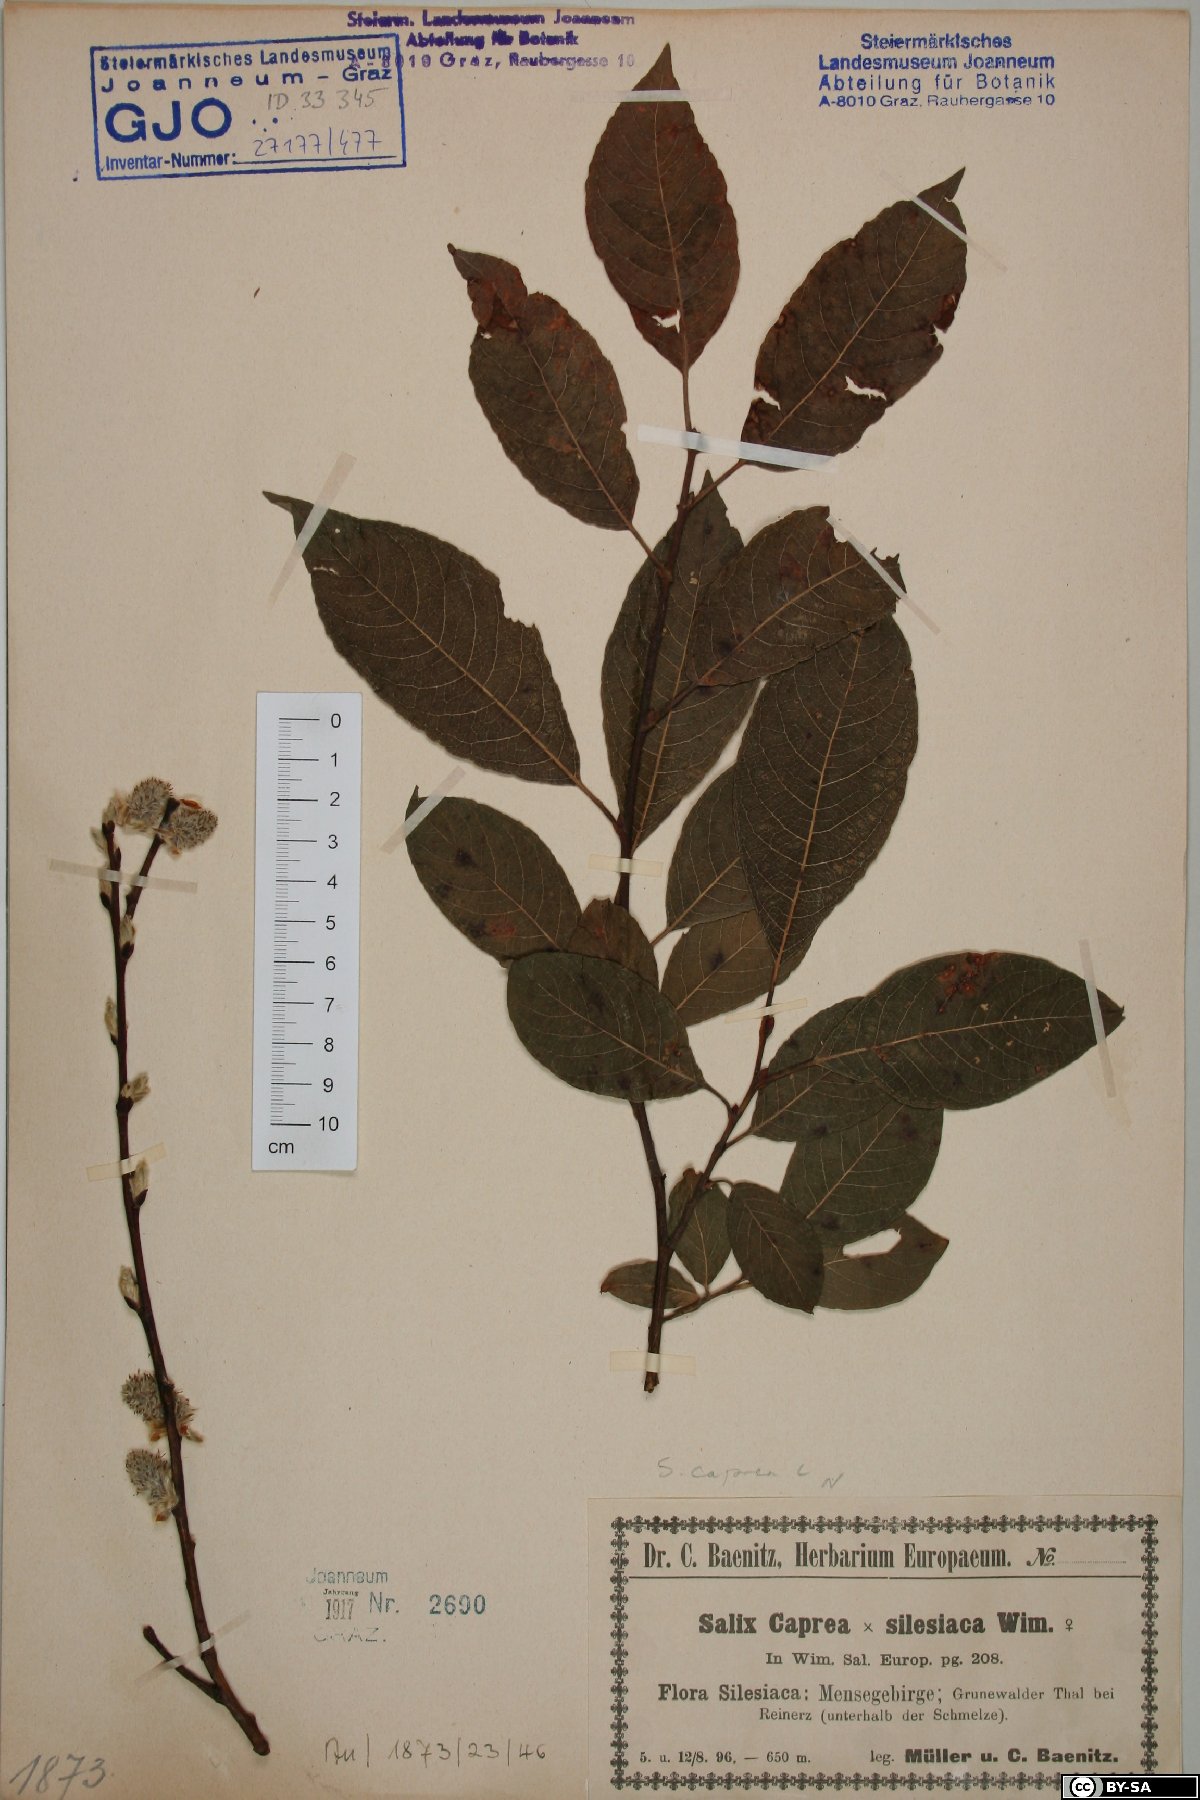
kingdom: Plantae
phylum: Tracheophyta
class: Magnoliopsida
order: Malpighiales
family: Salicaceae
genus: Salix
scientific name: Salix caprea
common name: Goat willow
